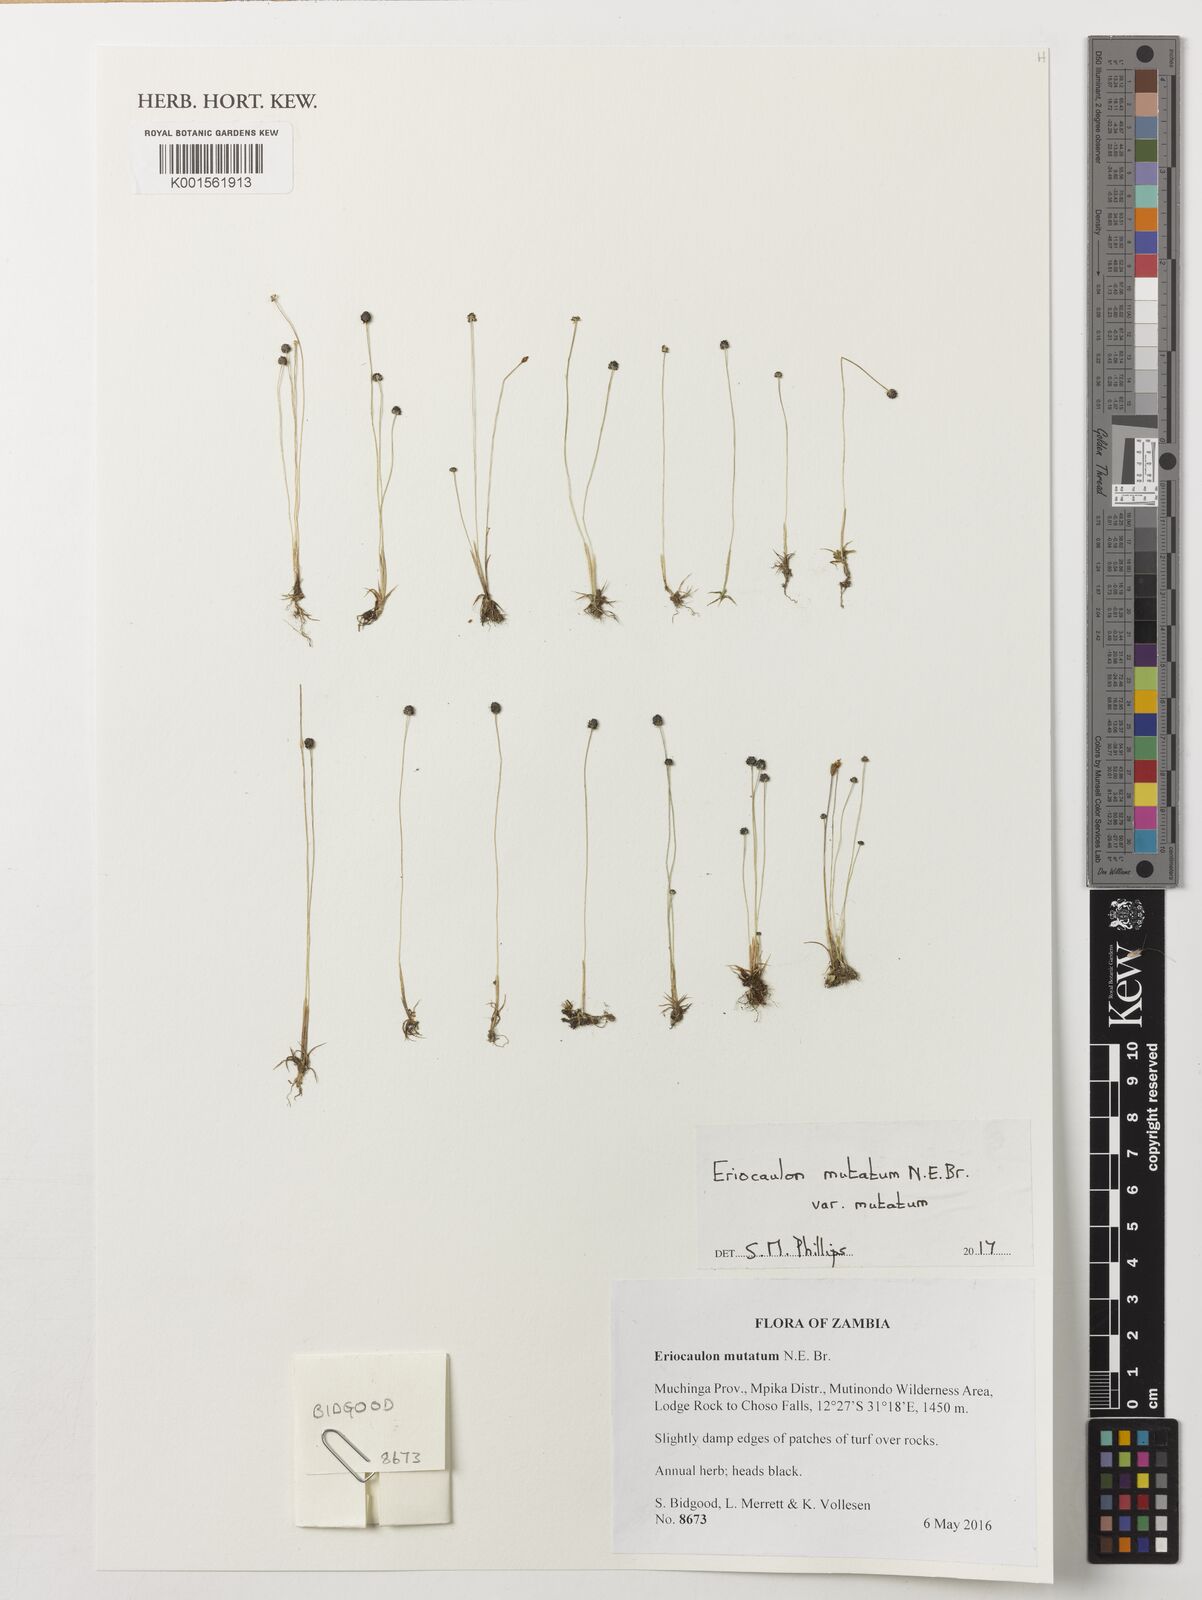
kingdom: Plantae
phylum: Tracheophyta
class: Magnoliopsida
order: Malpighiales
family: Ochnaceae
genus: Ochna
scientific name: Ochna ovata
